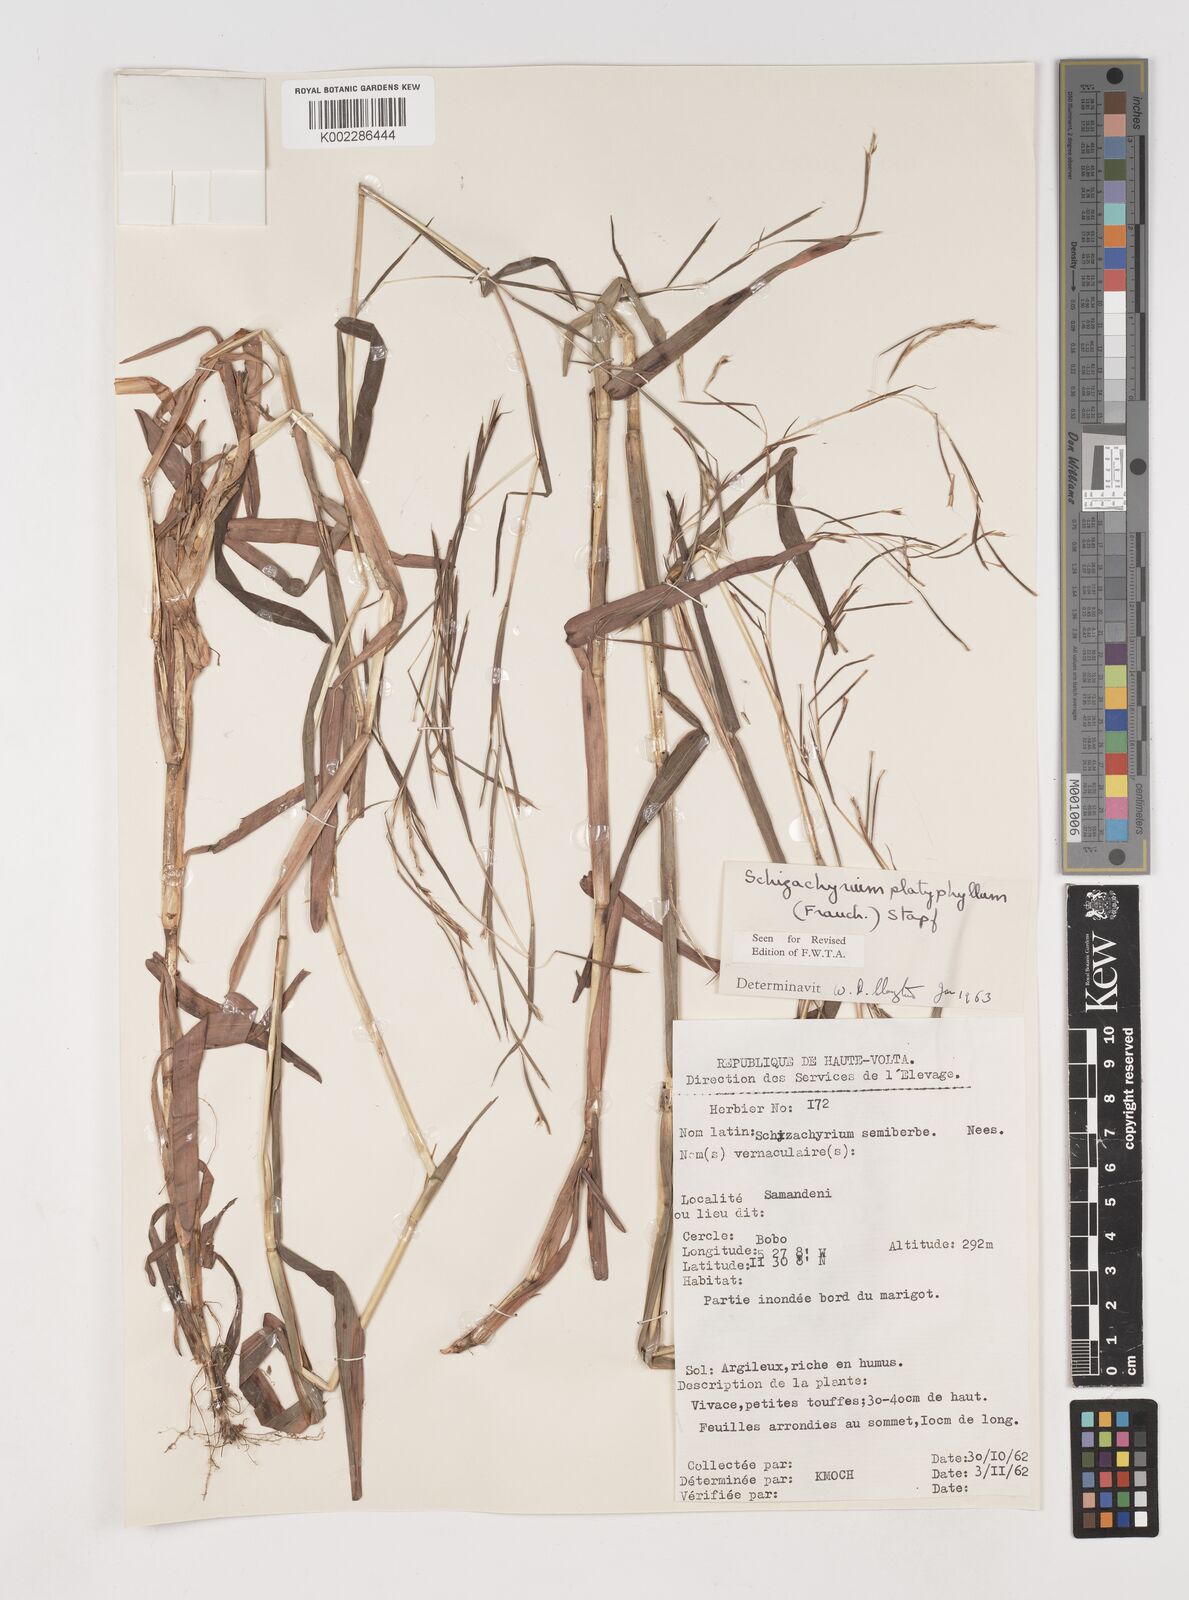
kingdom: Plantae
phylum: Tracheophyta
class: Liliopsida
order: Poales
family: Poaceae
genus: Schizachyrium
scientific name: Schizachyrium platyphyllum
